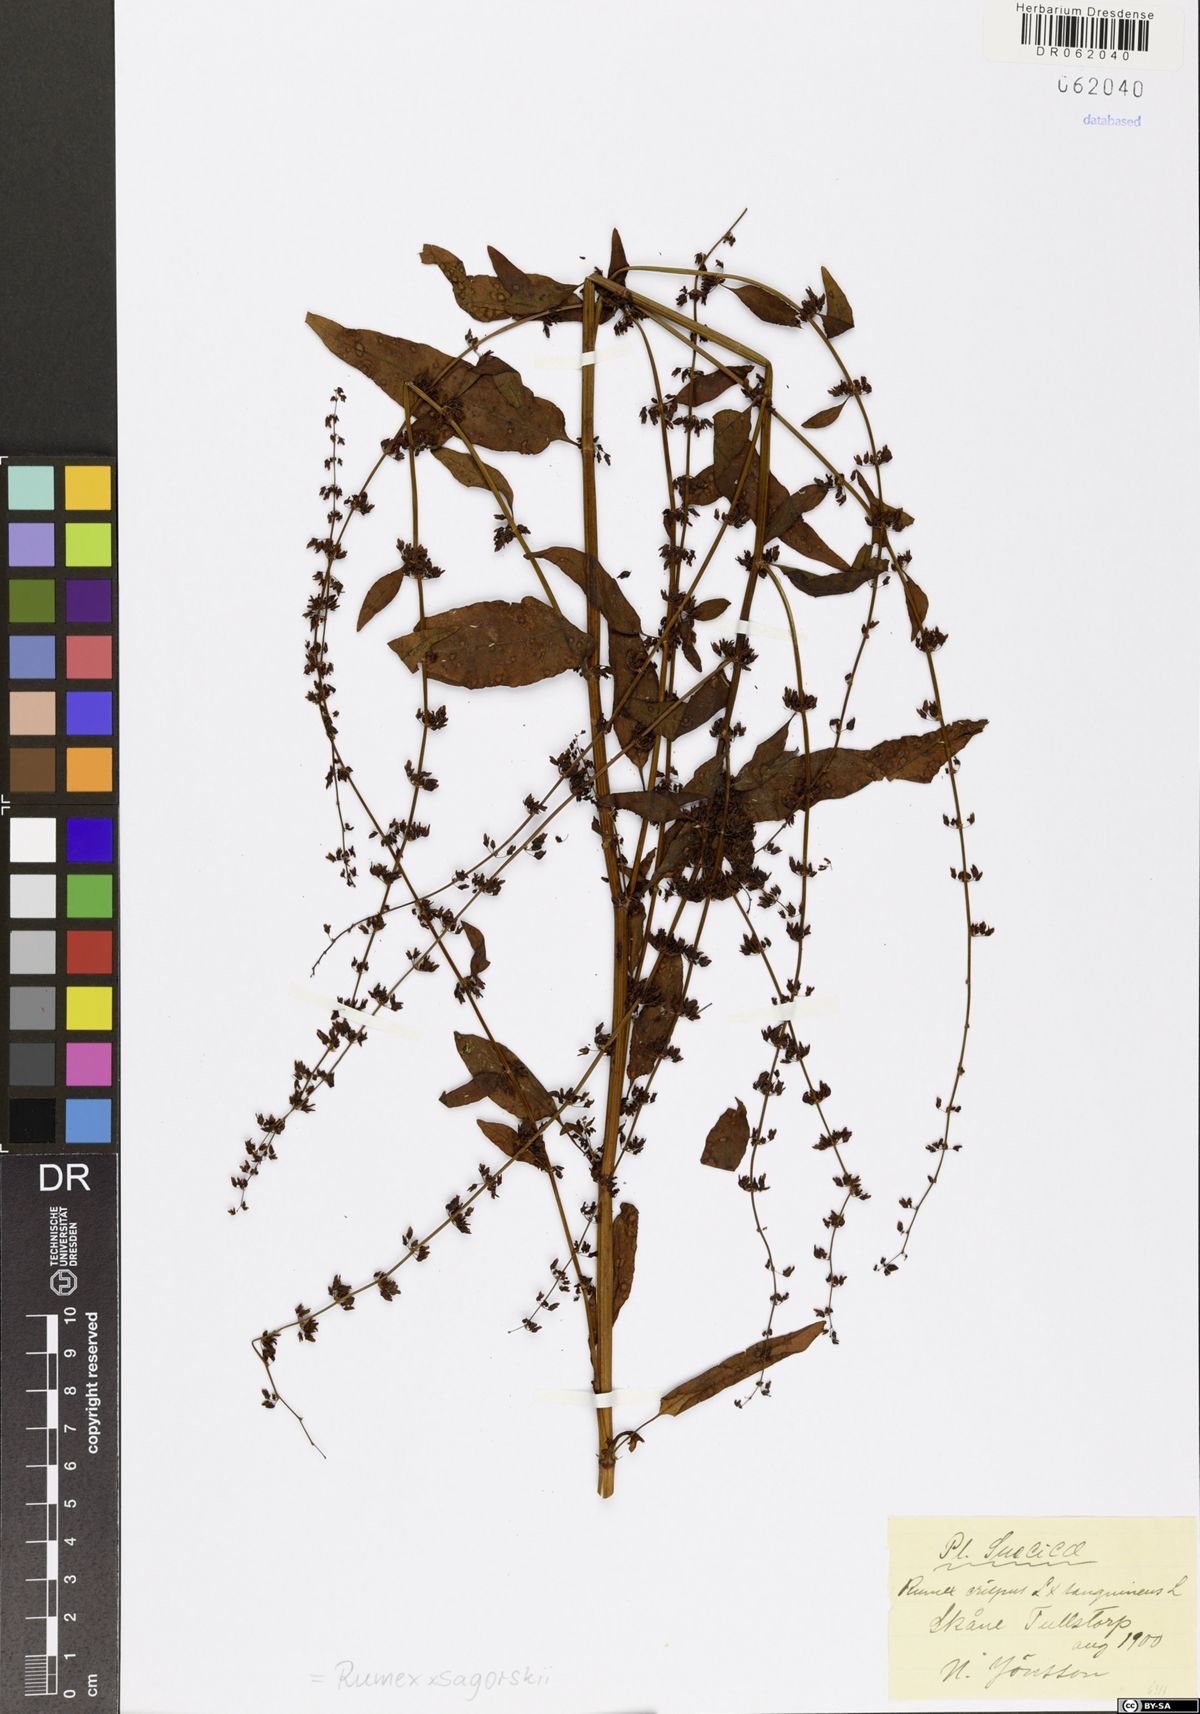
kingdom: Plantae
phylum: Tracheophyta
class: Magnoliopsida
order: Caryophyllales
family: Polygonaceae
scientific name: Polygonaceae
